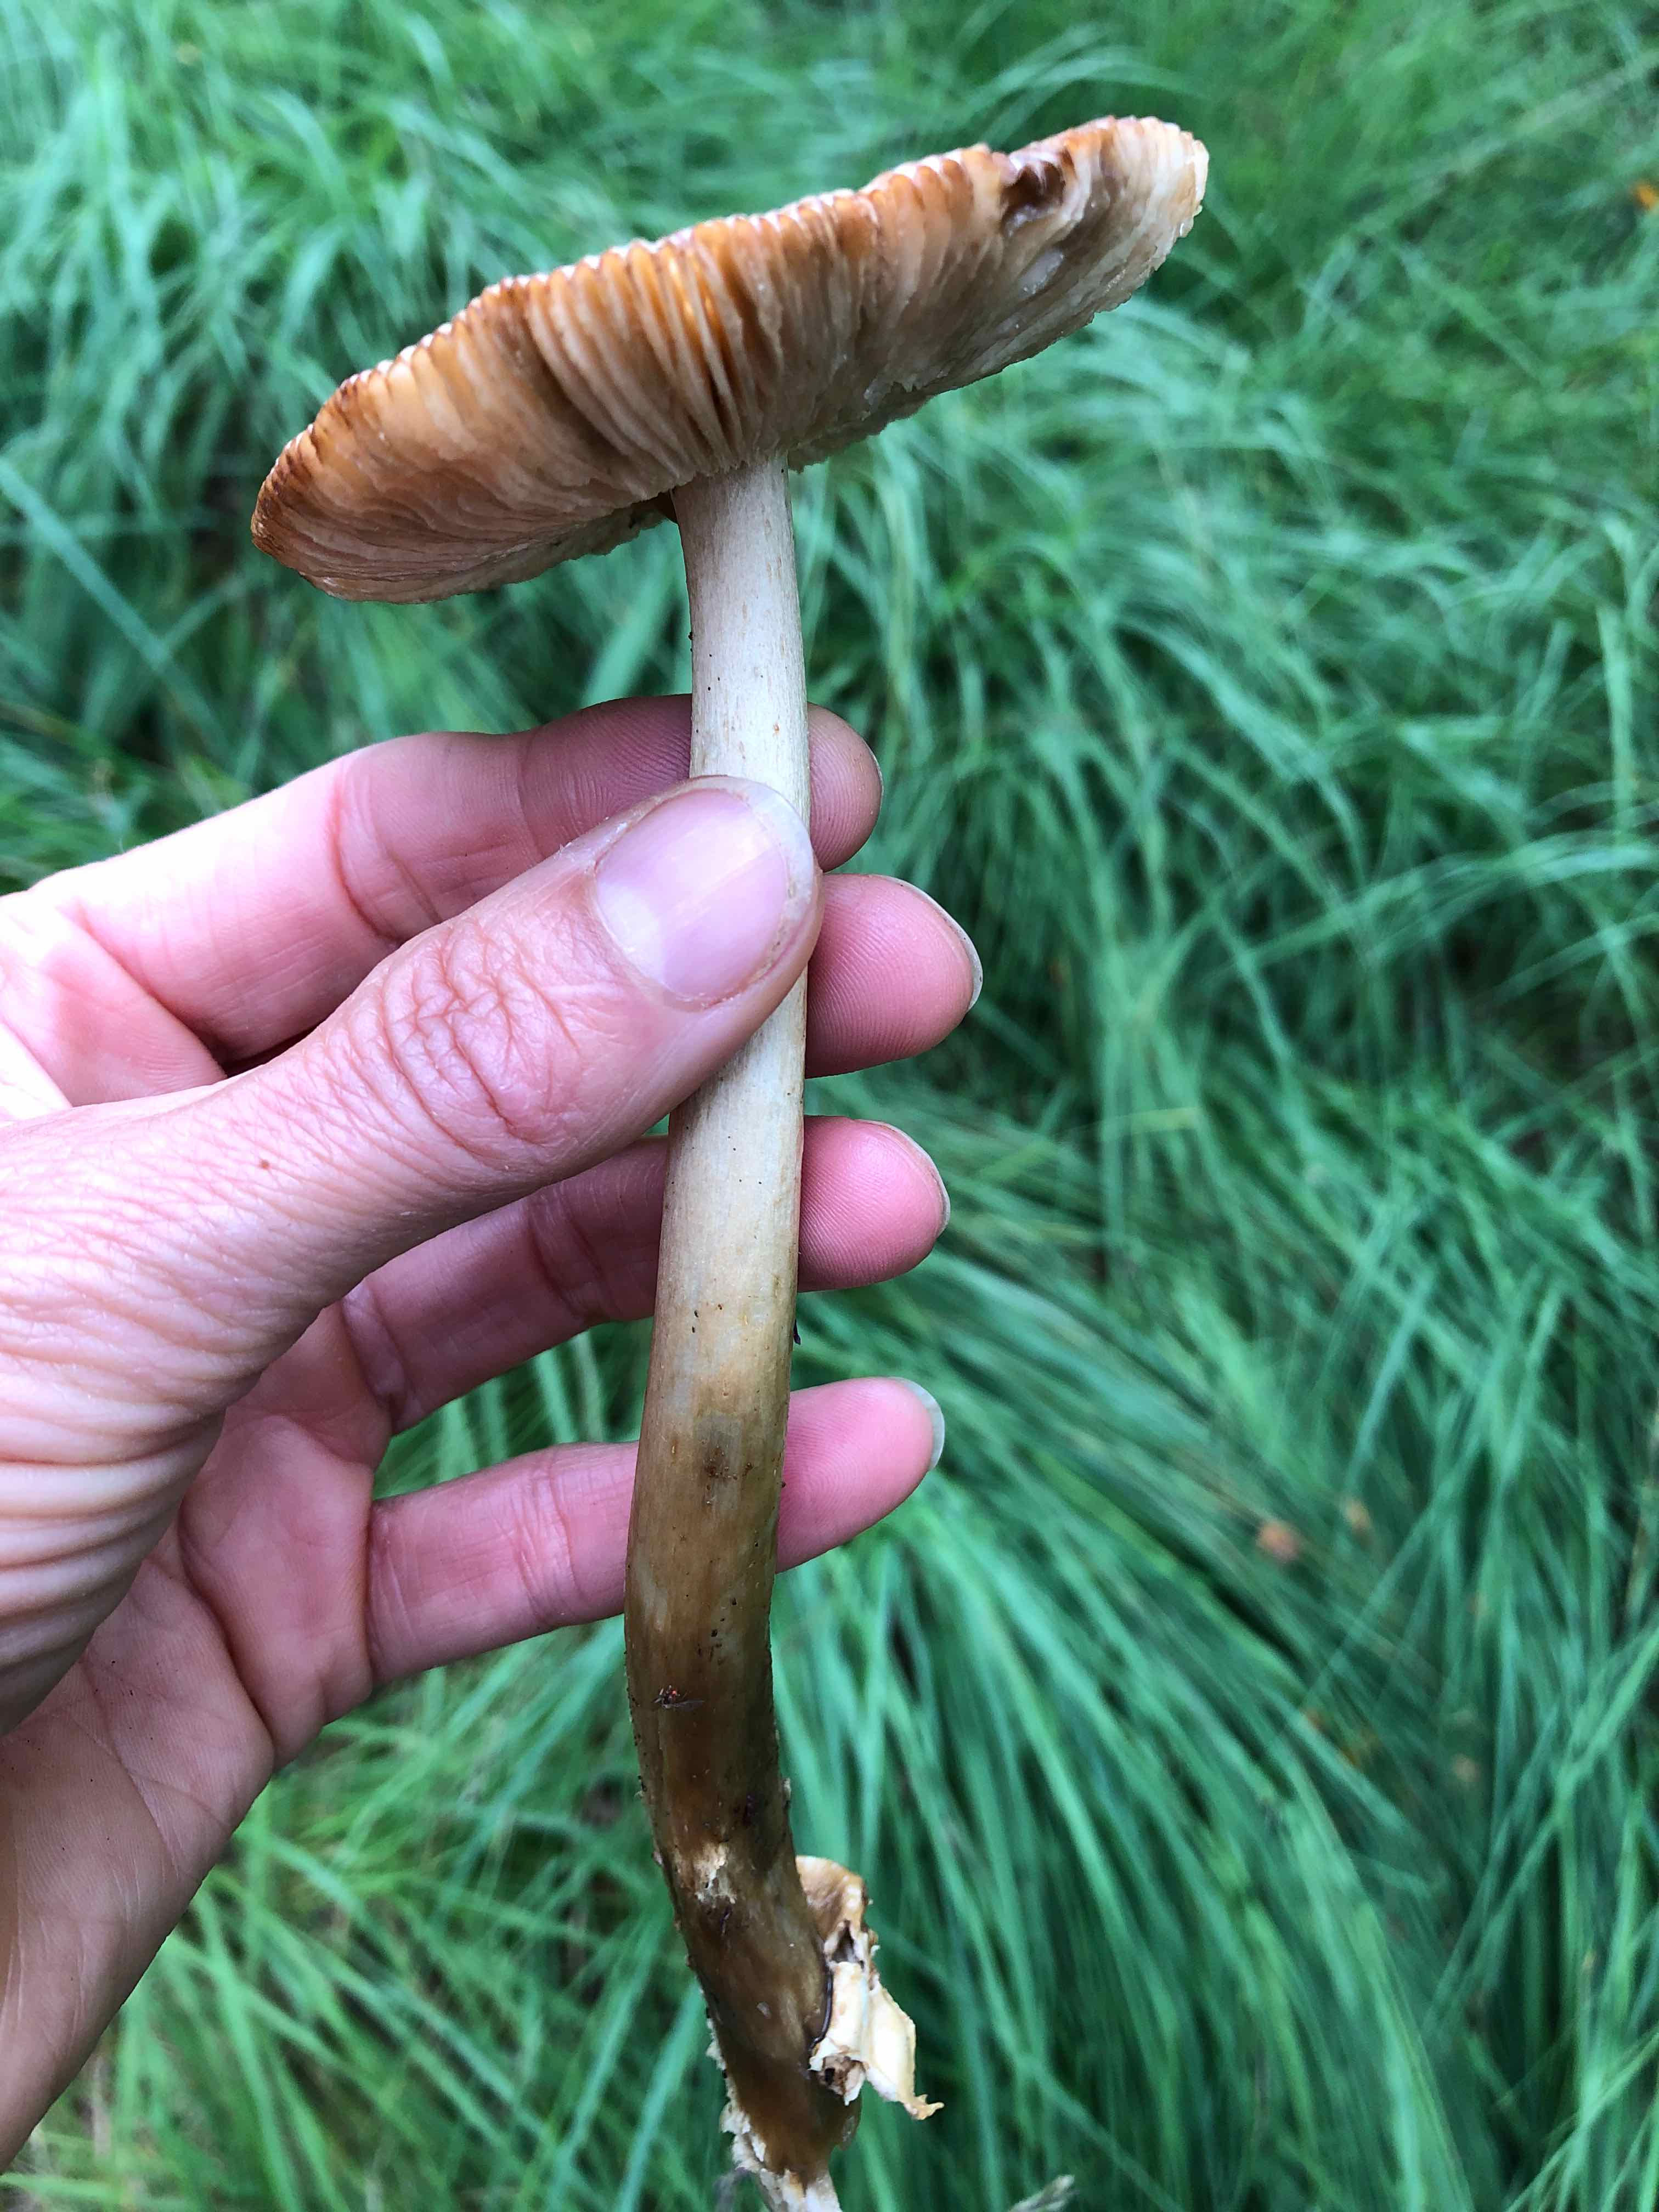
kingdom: Fungi
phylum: Basidiomycota
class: Agaricomycetes
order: Agaricales
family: Amanitaceae
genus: Amanita
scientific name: Amanita fulva
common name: brun kam-fluesvamp
